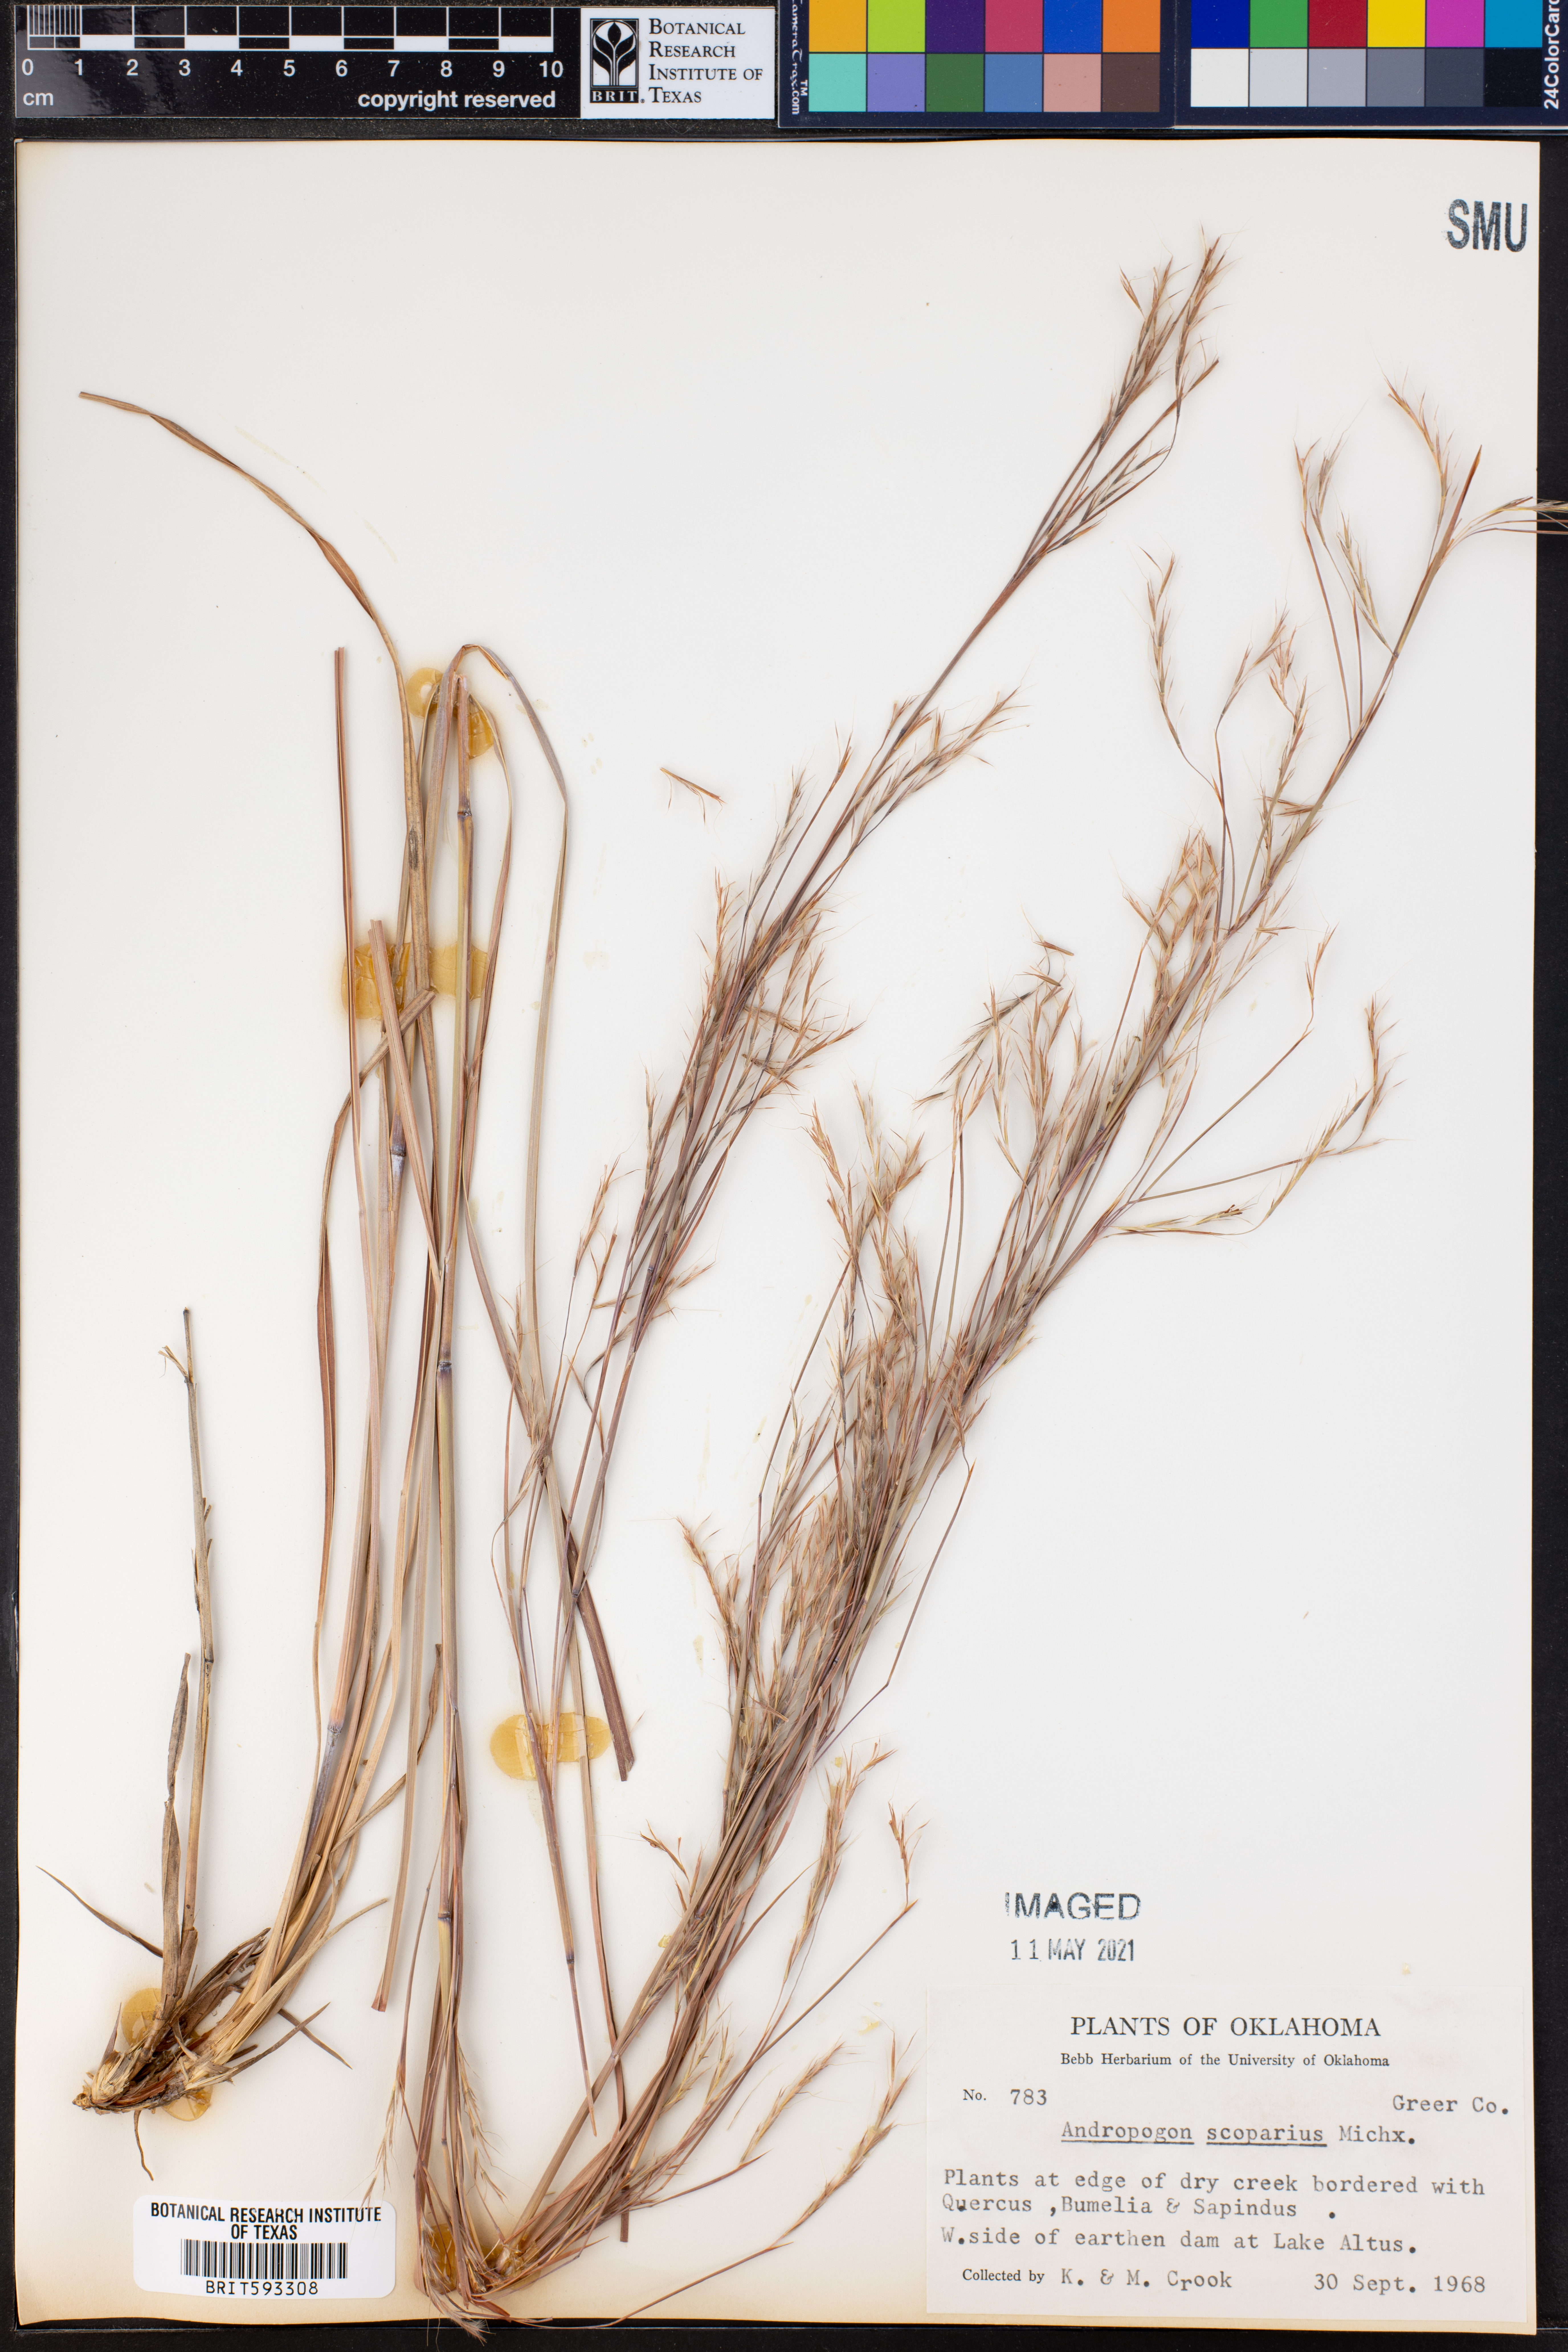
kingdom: Plantae
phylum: Tracheophyta
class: Liliopsida
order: Poales
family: Poaceae
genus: Schizachyrium
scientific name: Schizachyrium scoparium
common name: Little bluestem
